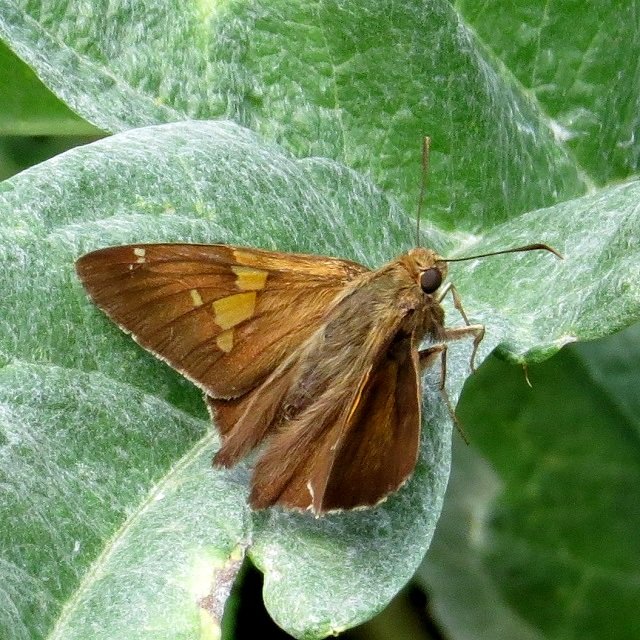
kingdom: Animalia
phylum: Arthropoda
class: Insecta
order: Lepidoptera
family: Hesperiidae
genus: Epargyreus
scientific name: Epargyreus clarus
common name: Silver-spotted Skipper
